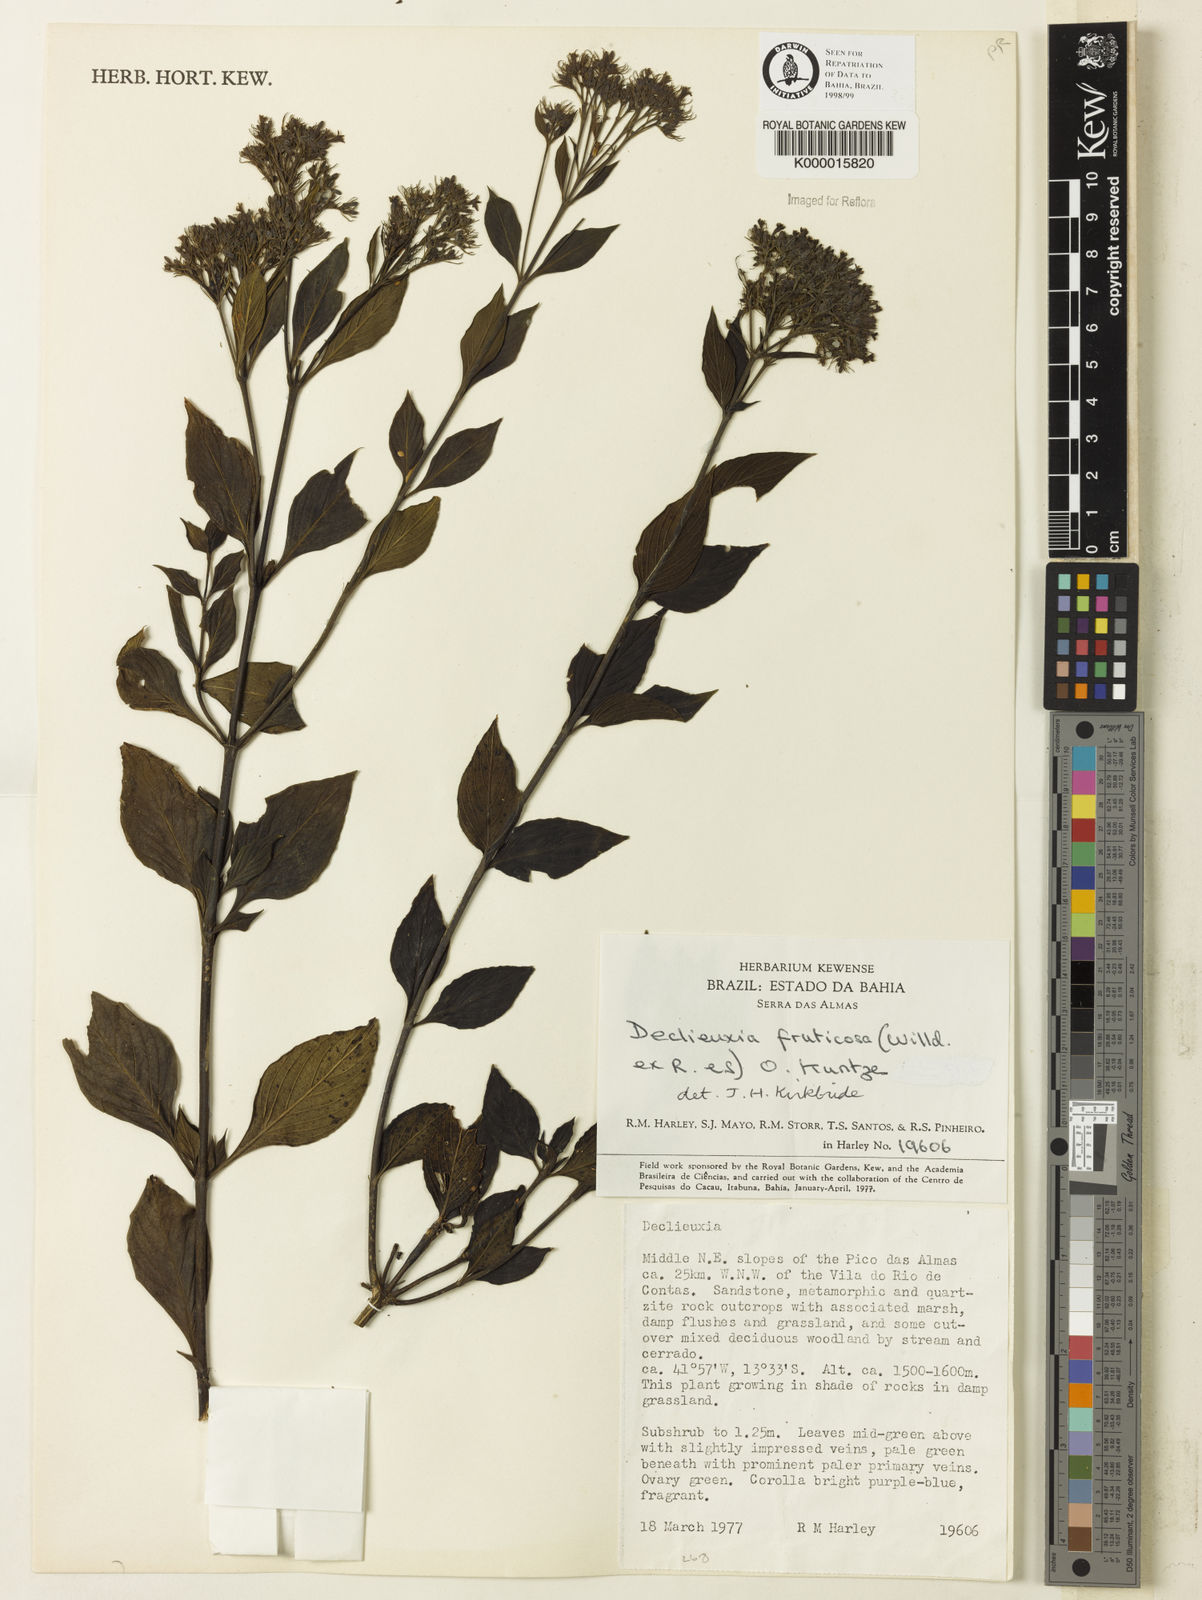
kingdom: Plantae
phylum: Tracheophyta
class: Magnoliopsida
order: Gentianales
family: Rubiaceae
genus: Declieuxia
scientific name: Declieuxia fruticosa
